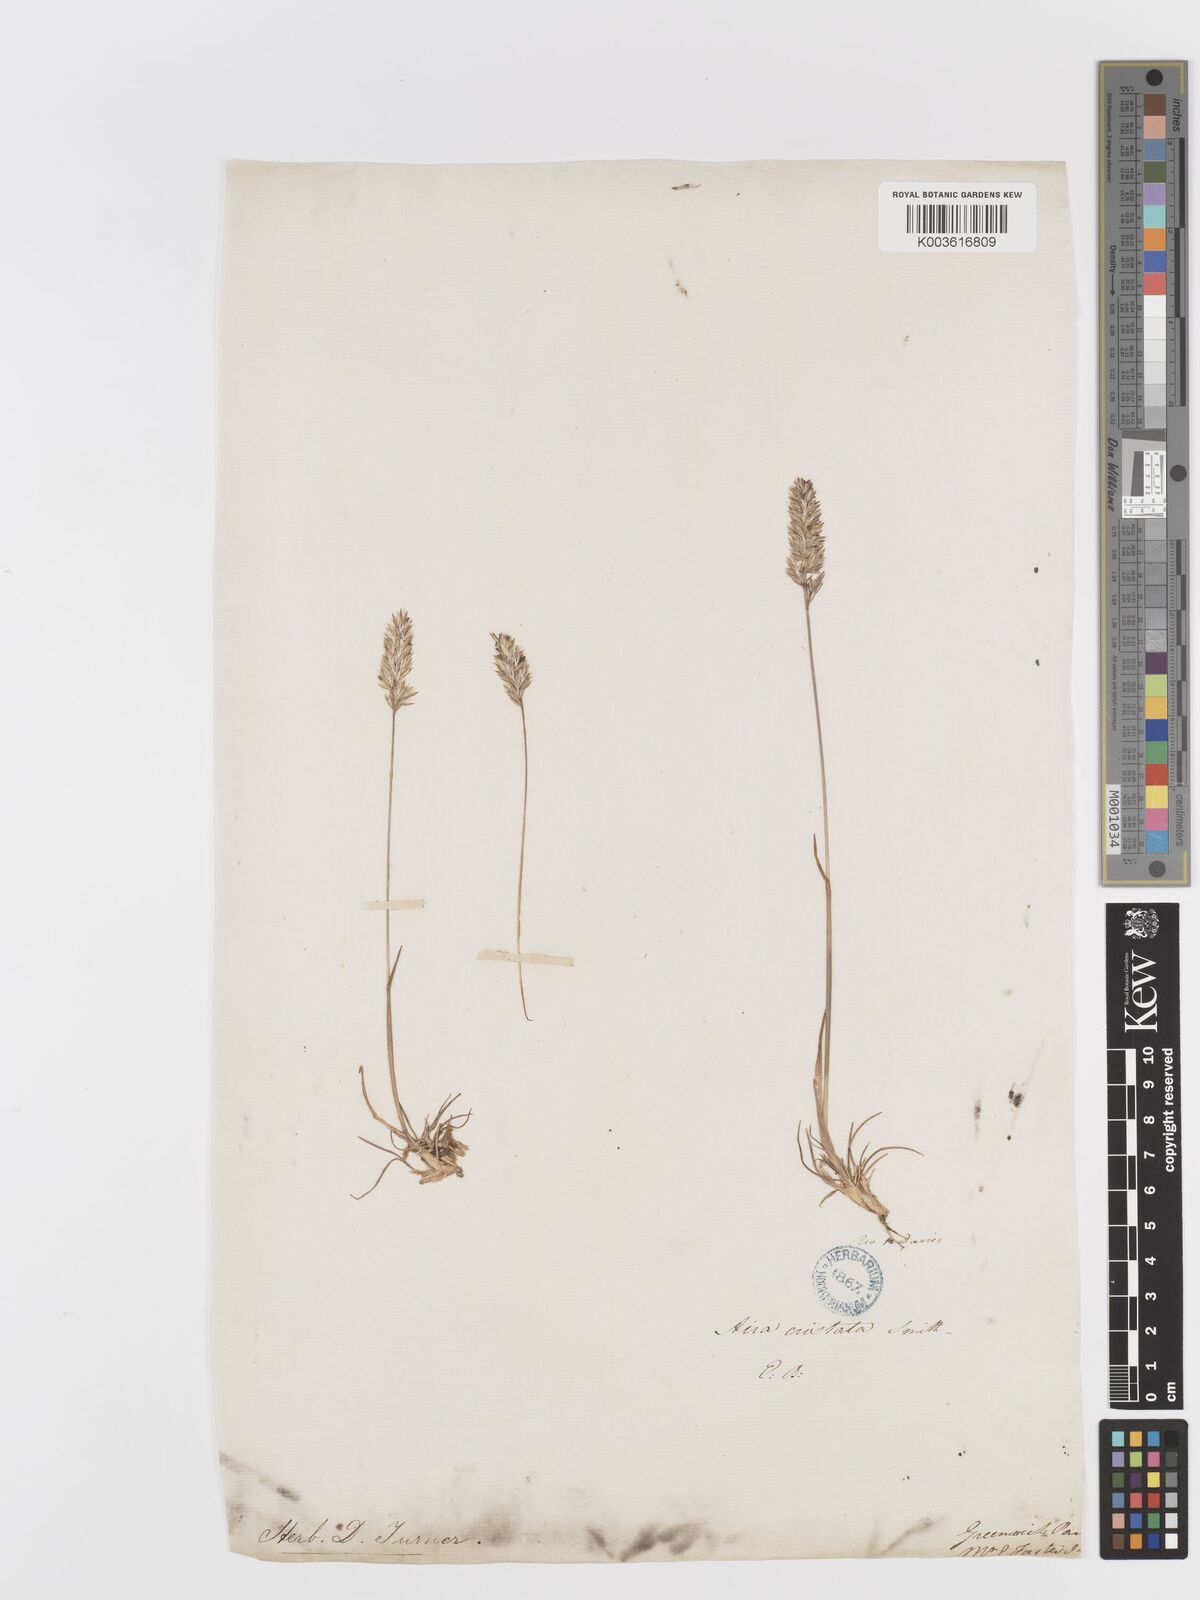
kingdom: Plantae
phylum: Tracheophyta
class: Liliopsida
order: Poales
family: Poaceae
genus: Koeleria
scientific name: Koeleria macrantha
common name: Crested hair-grass
